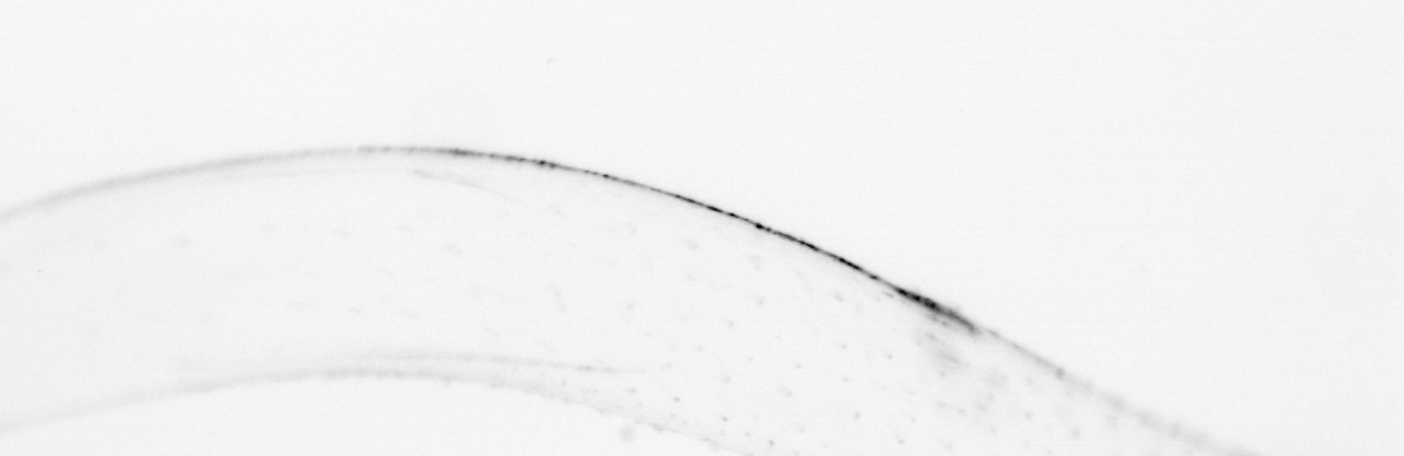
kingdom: Animalia
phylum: Chaetognatha
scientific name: Chaetognatha
